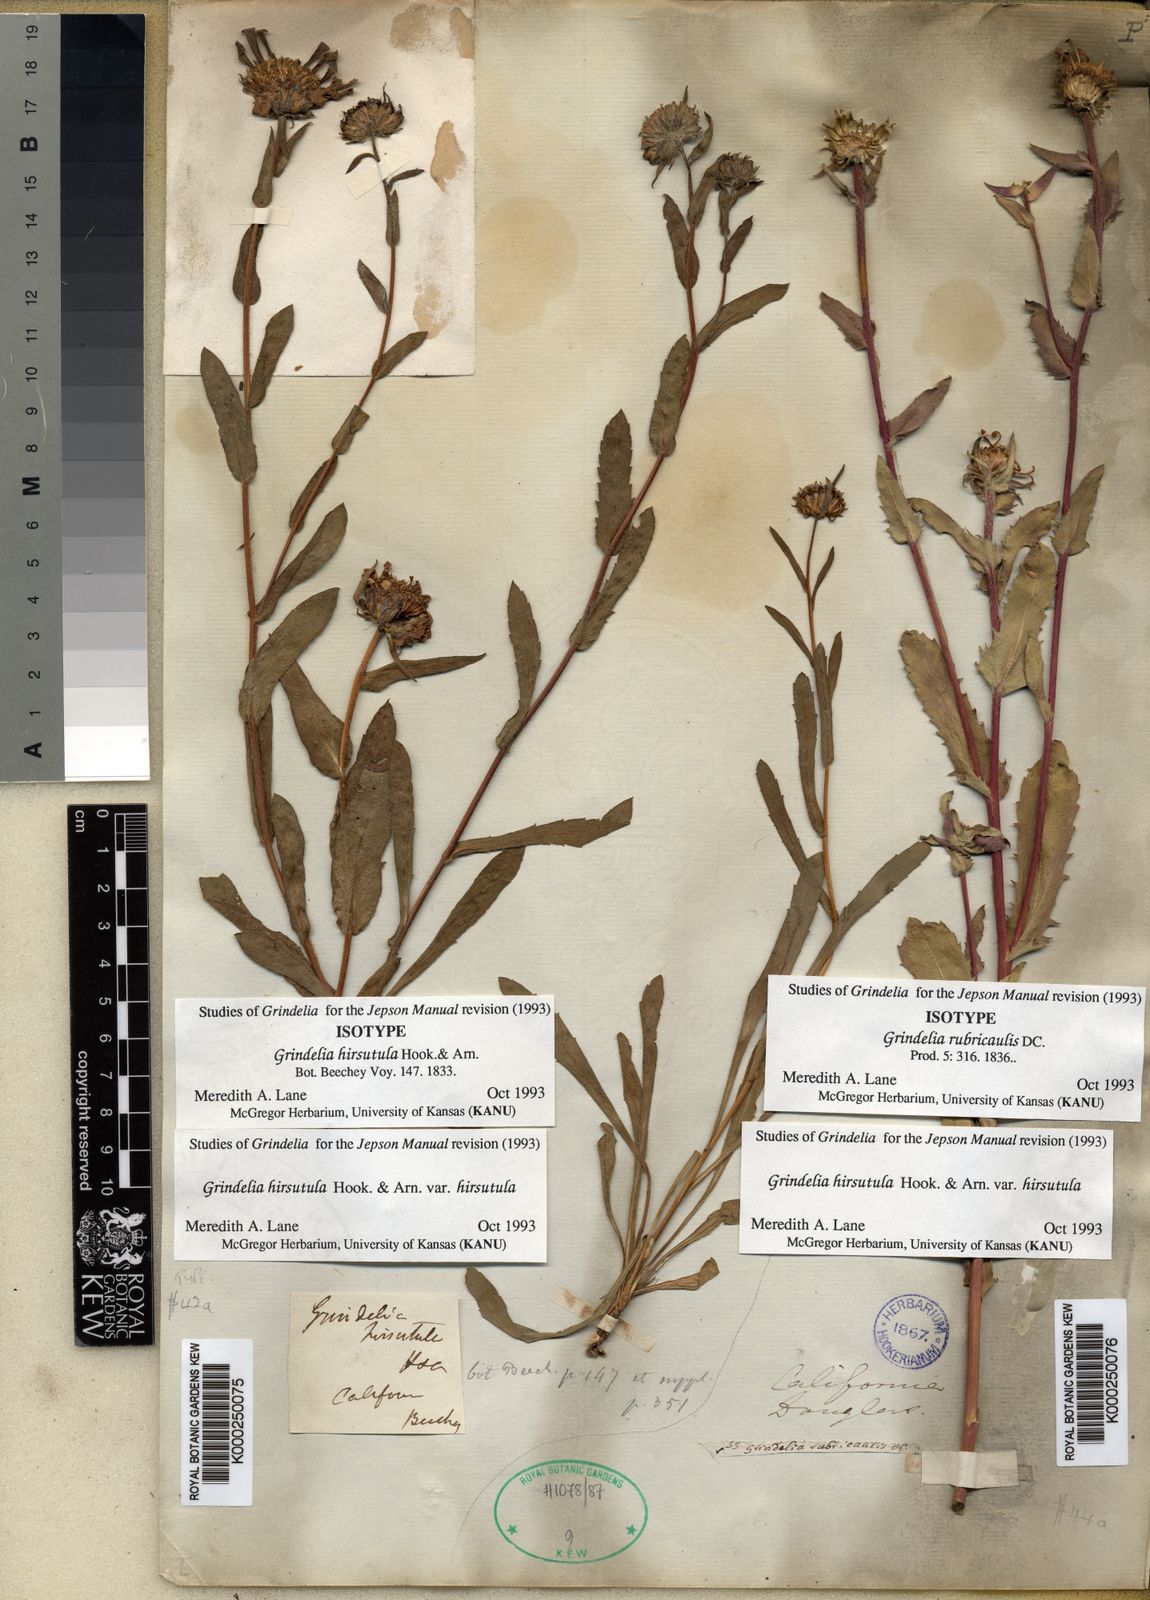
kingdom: Plantae
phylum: Tracheophyta
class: Magnoliopsida
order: Asterales
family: Asteraceae
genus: Grindelia
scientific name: Grindelia hirsutula
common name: Hairy gumweed
